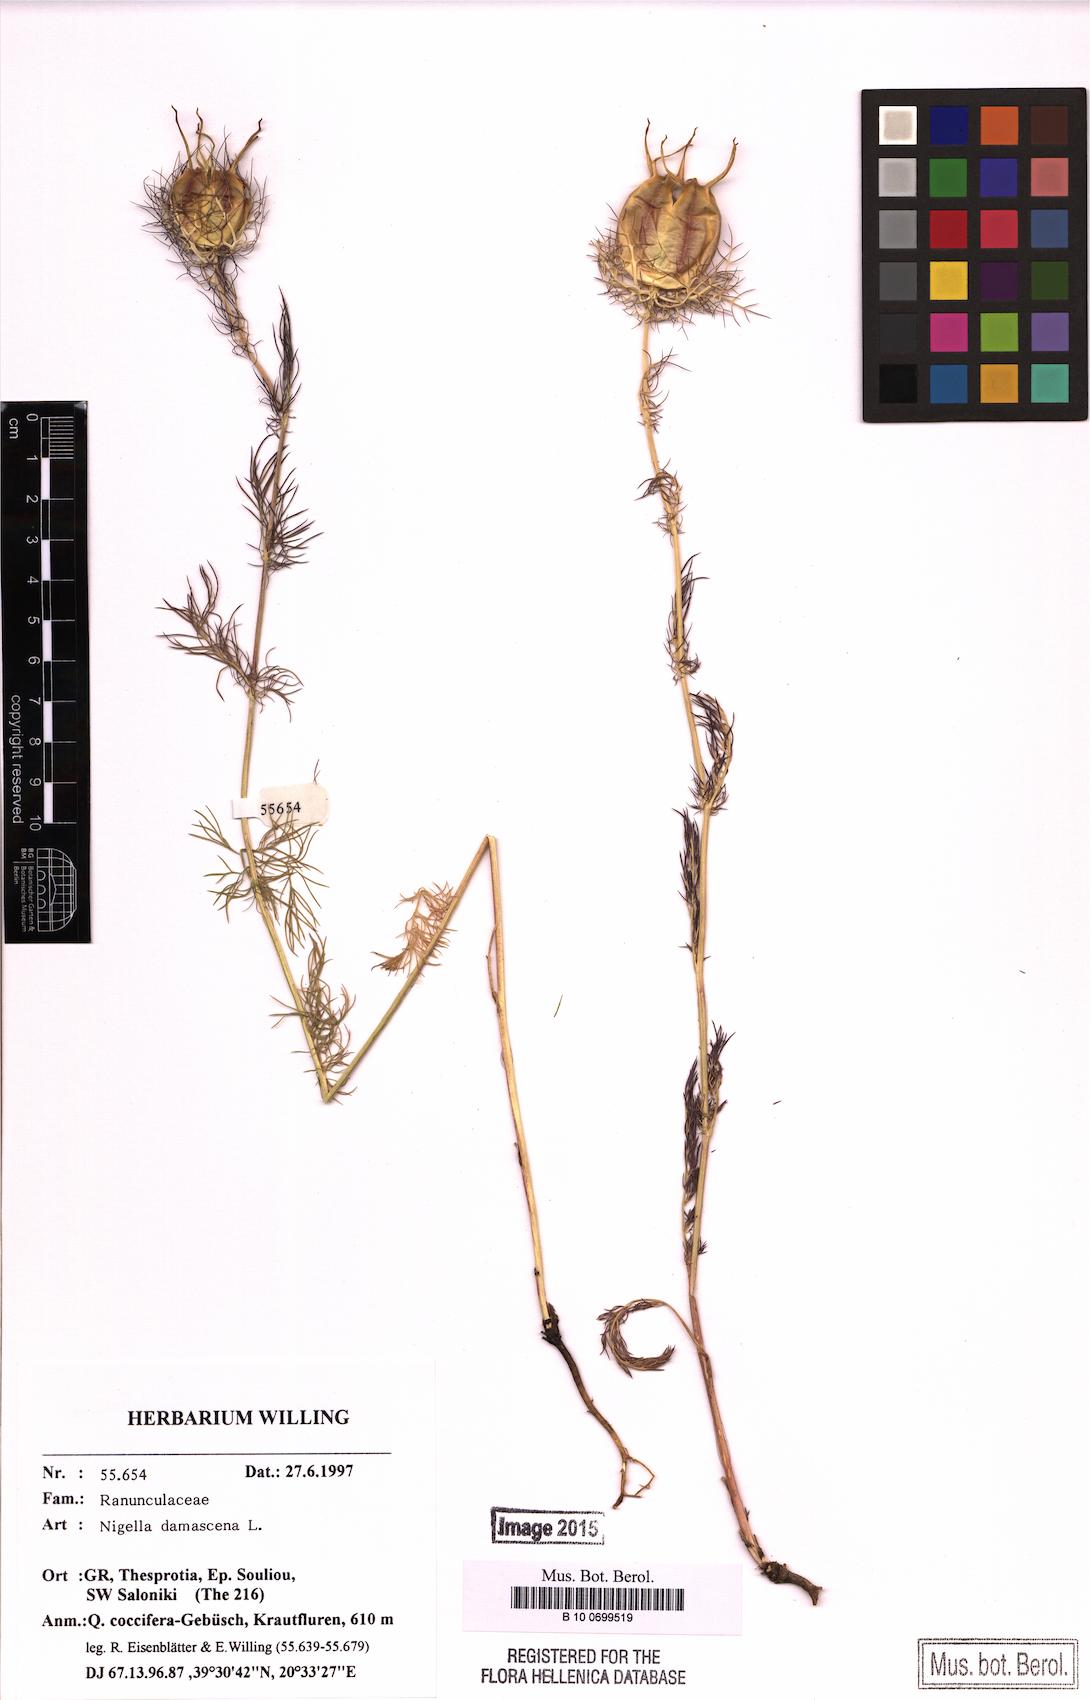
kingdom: Plantae
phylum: Tracheophyta
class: Magnoliopsida
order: Ranunculales
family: Ranunculaceae
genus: Nigella
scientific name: Nigella damascena
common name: Love-in-a-mist
